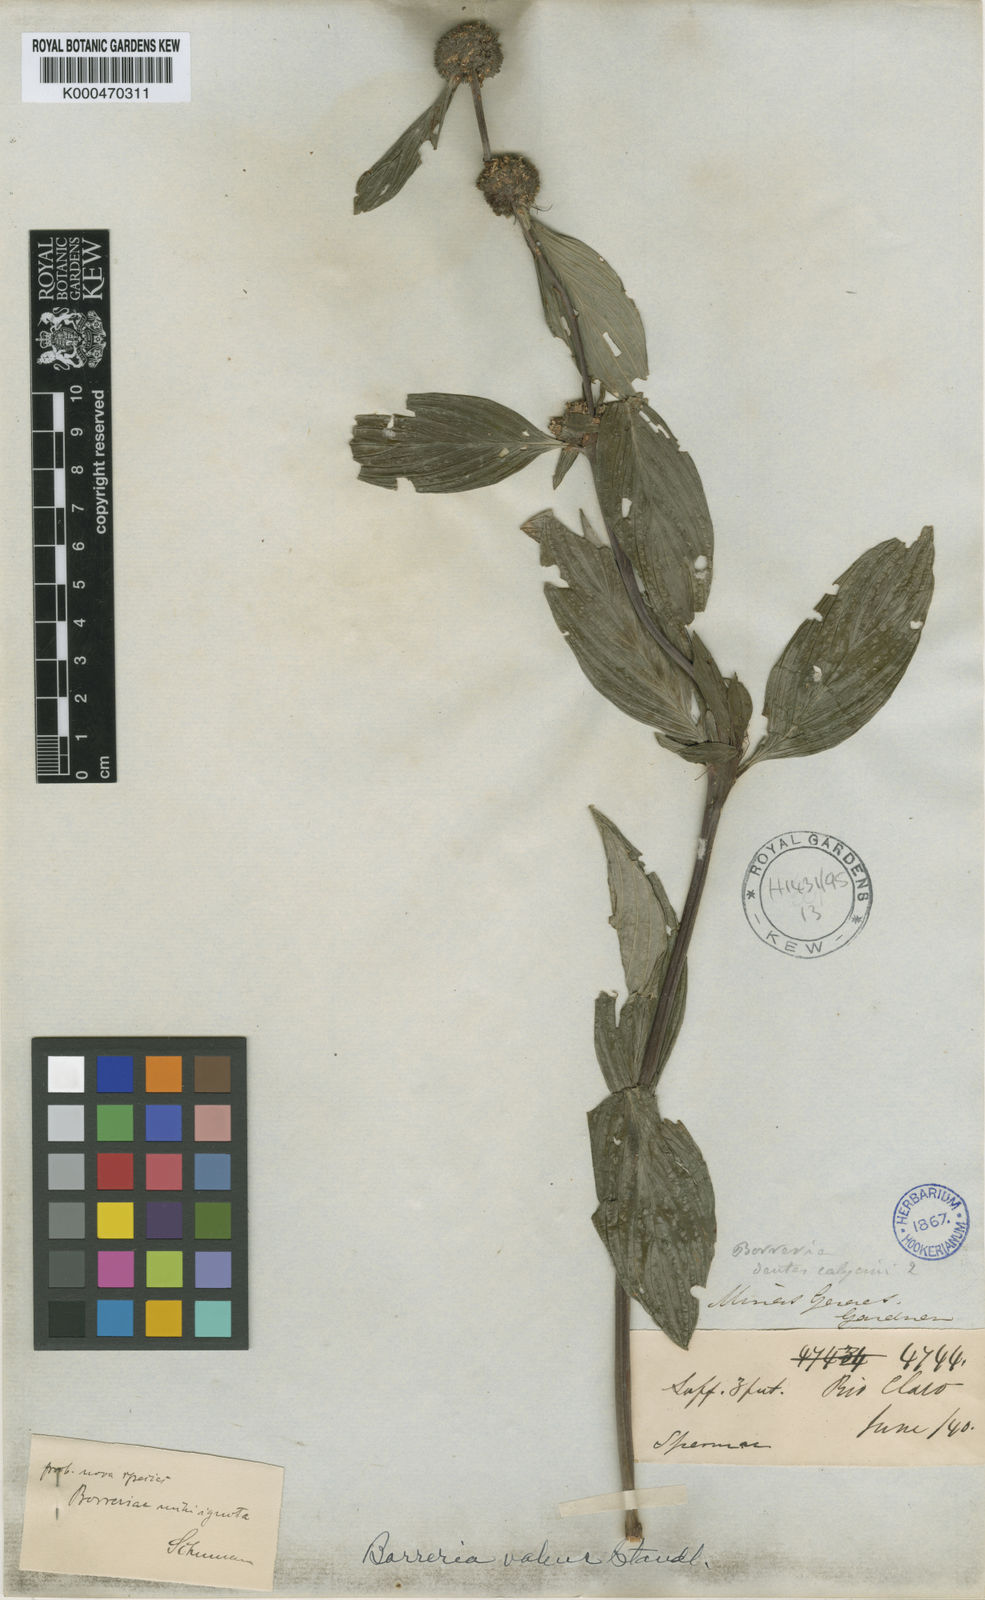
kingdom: Plantae
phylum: Tracheophyta
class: Magnoliopsida
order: Gentianales
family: Rubiaceae
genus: Spermacoce
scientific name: Spermacoce valens
